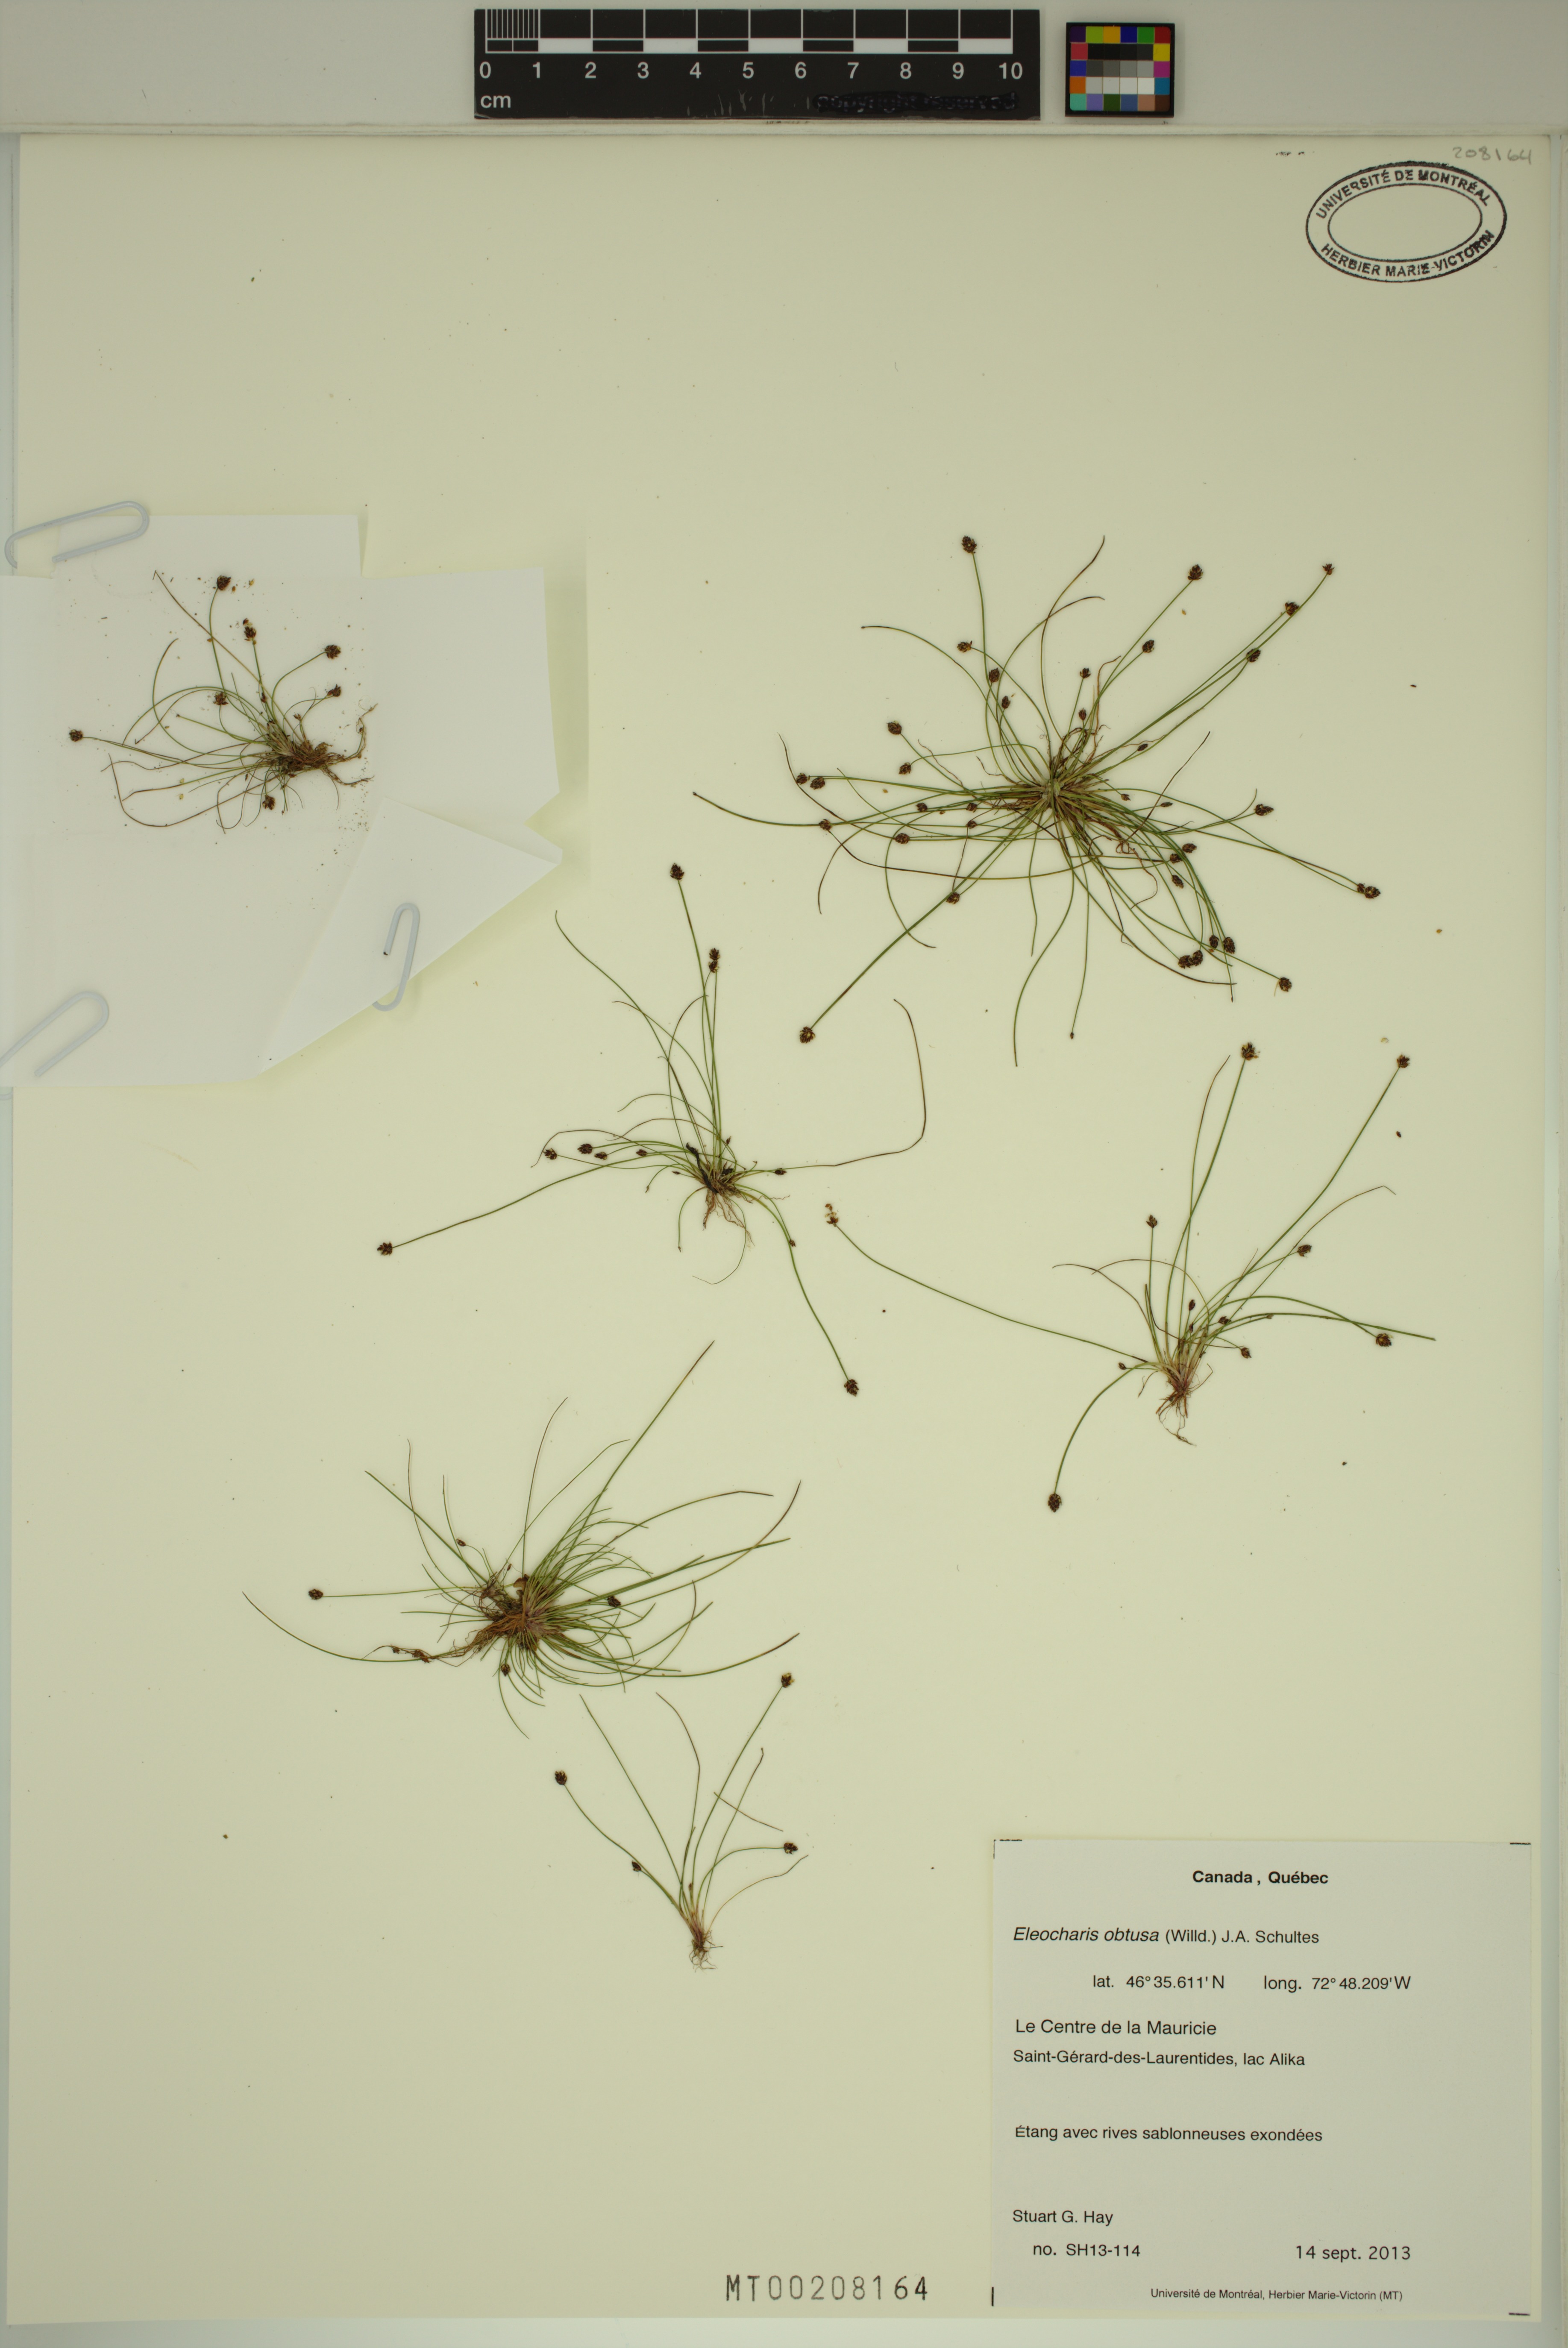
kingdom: Plantae
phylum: Tracheophyta
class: Liliopsida
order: Poales
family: Cyperaceae
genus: Eleocharis
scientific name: Eleocharis obtusa
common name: Blunt spikerush
